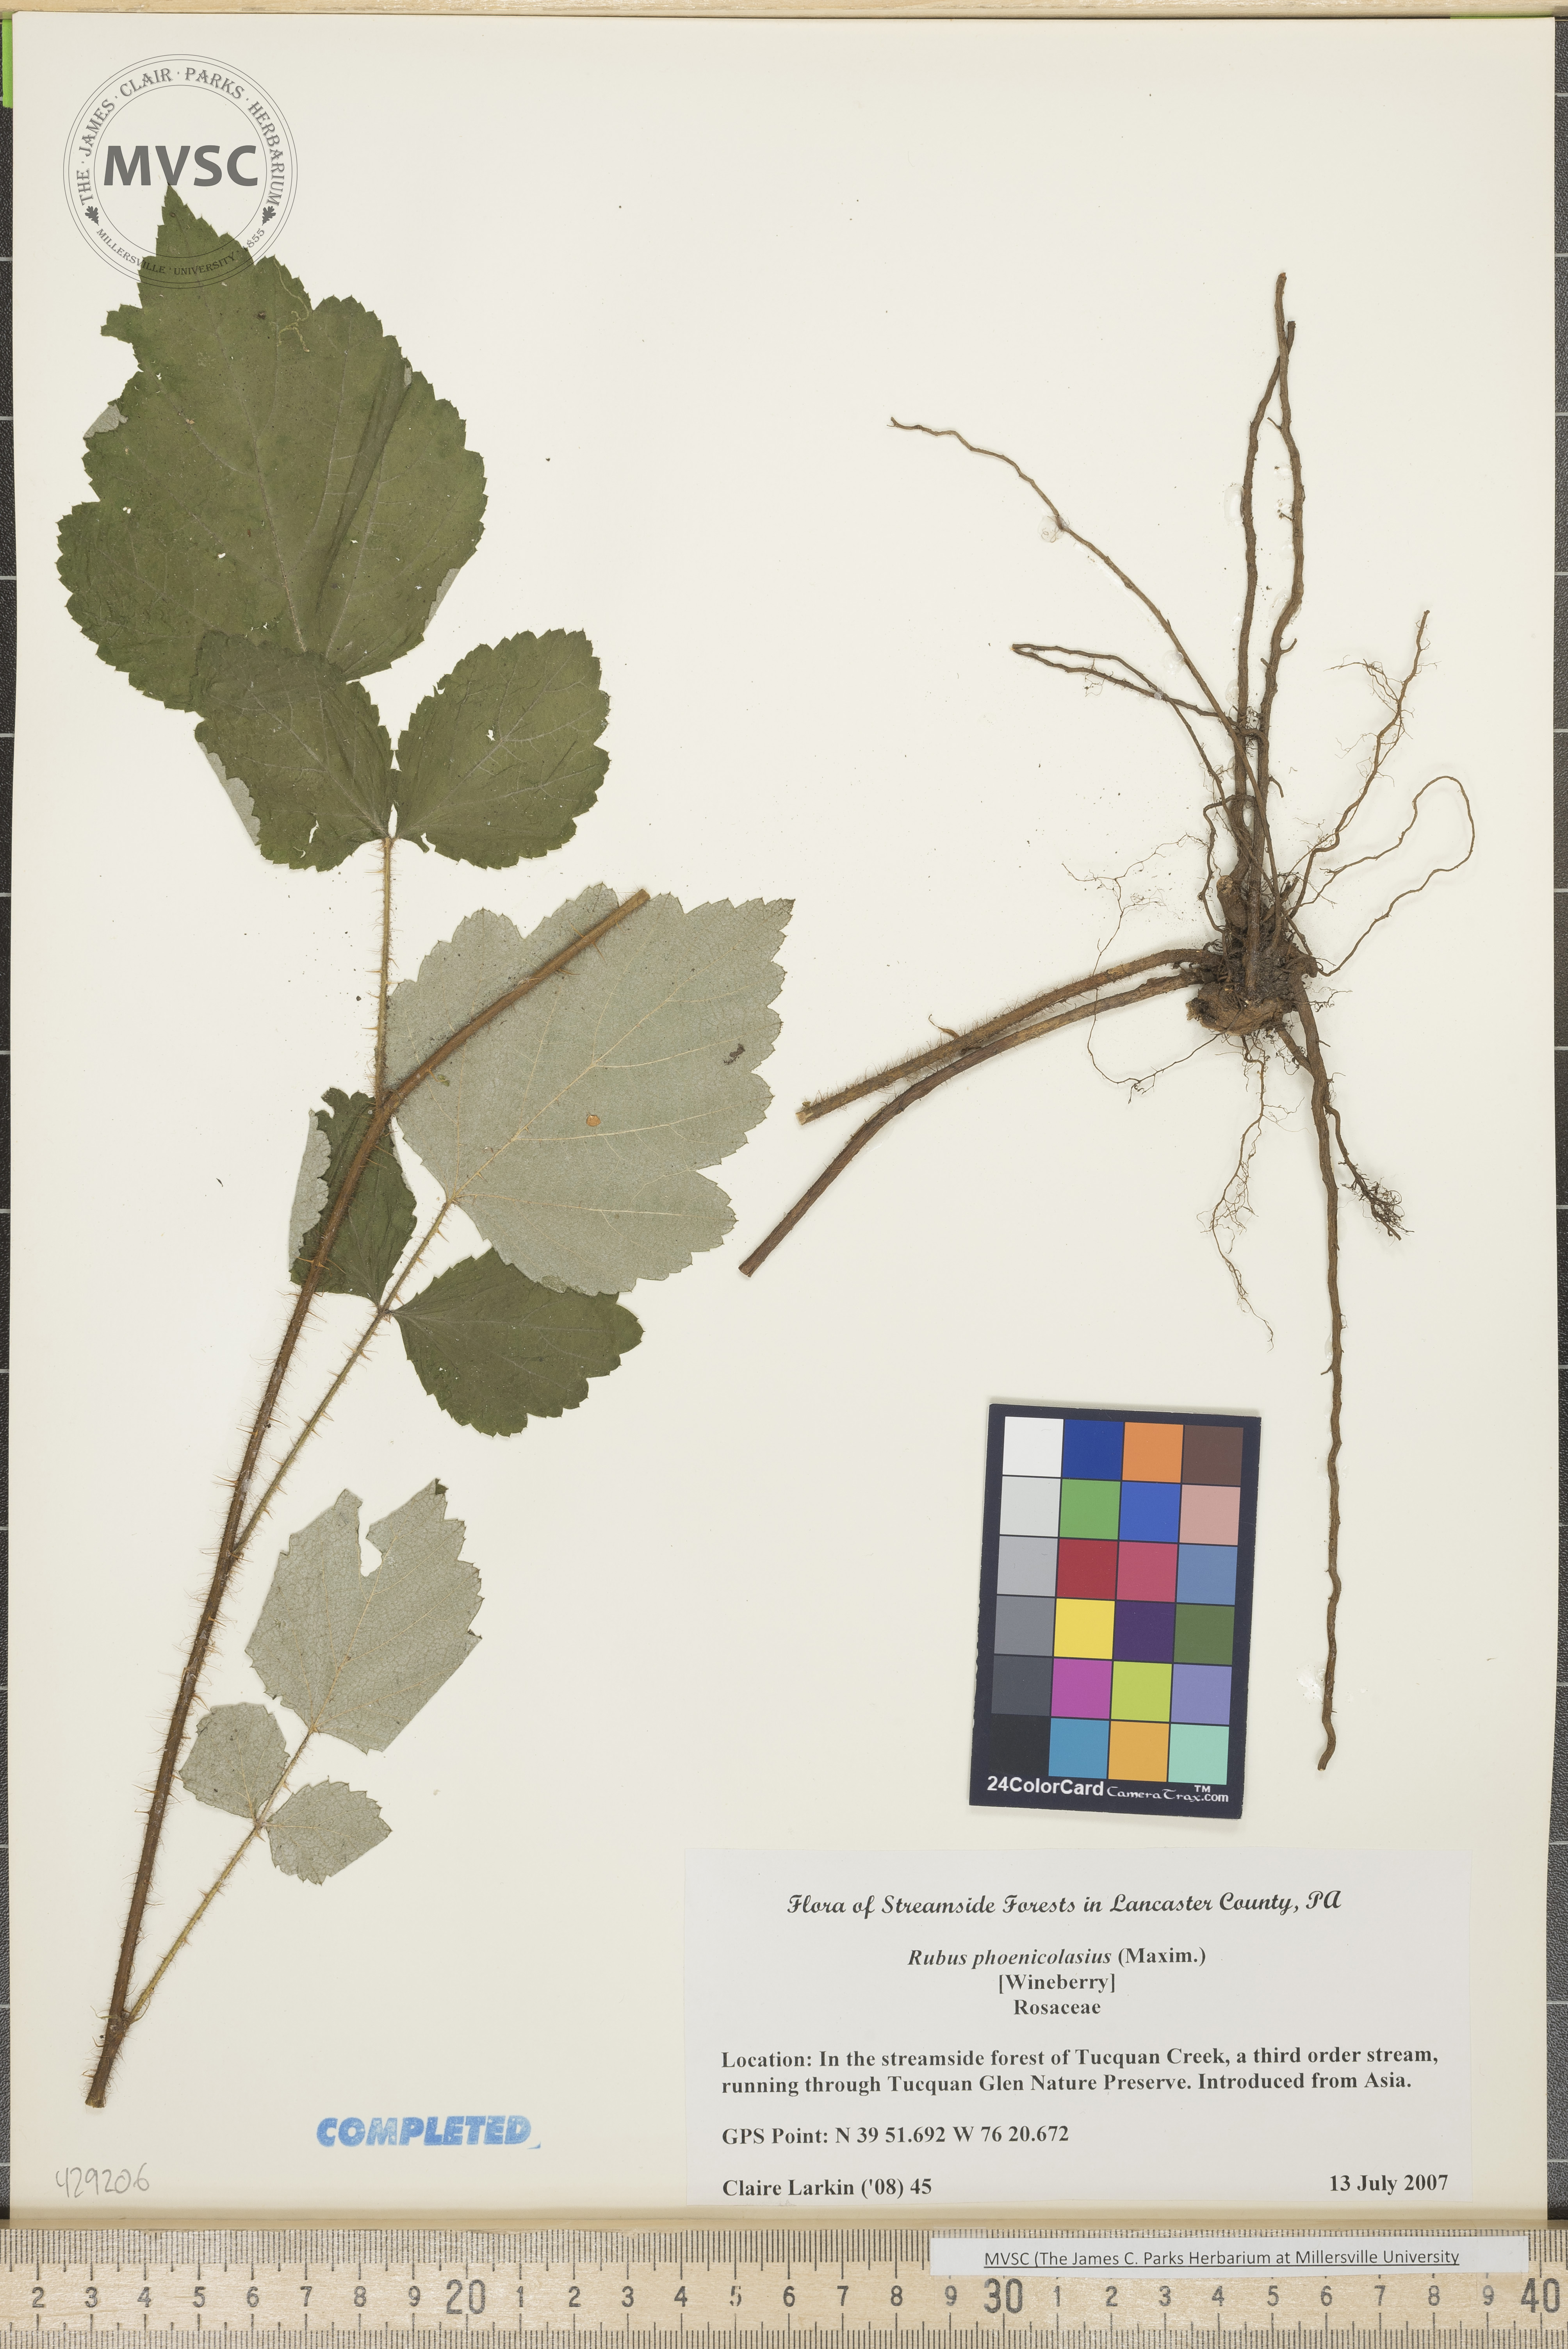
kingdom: Plantae
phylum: Tracheophyta
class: Magnoliopsida
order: Rosales
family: Rosaceae
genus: Rubus
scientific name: Rubus phoenicolasius
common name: Wineberry
